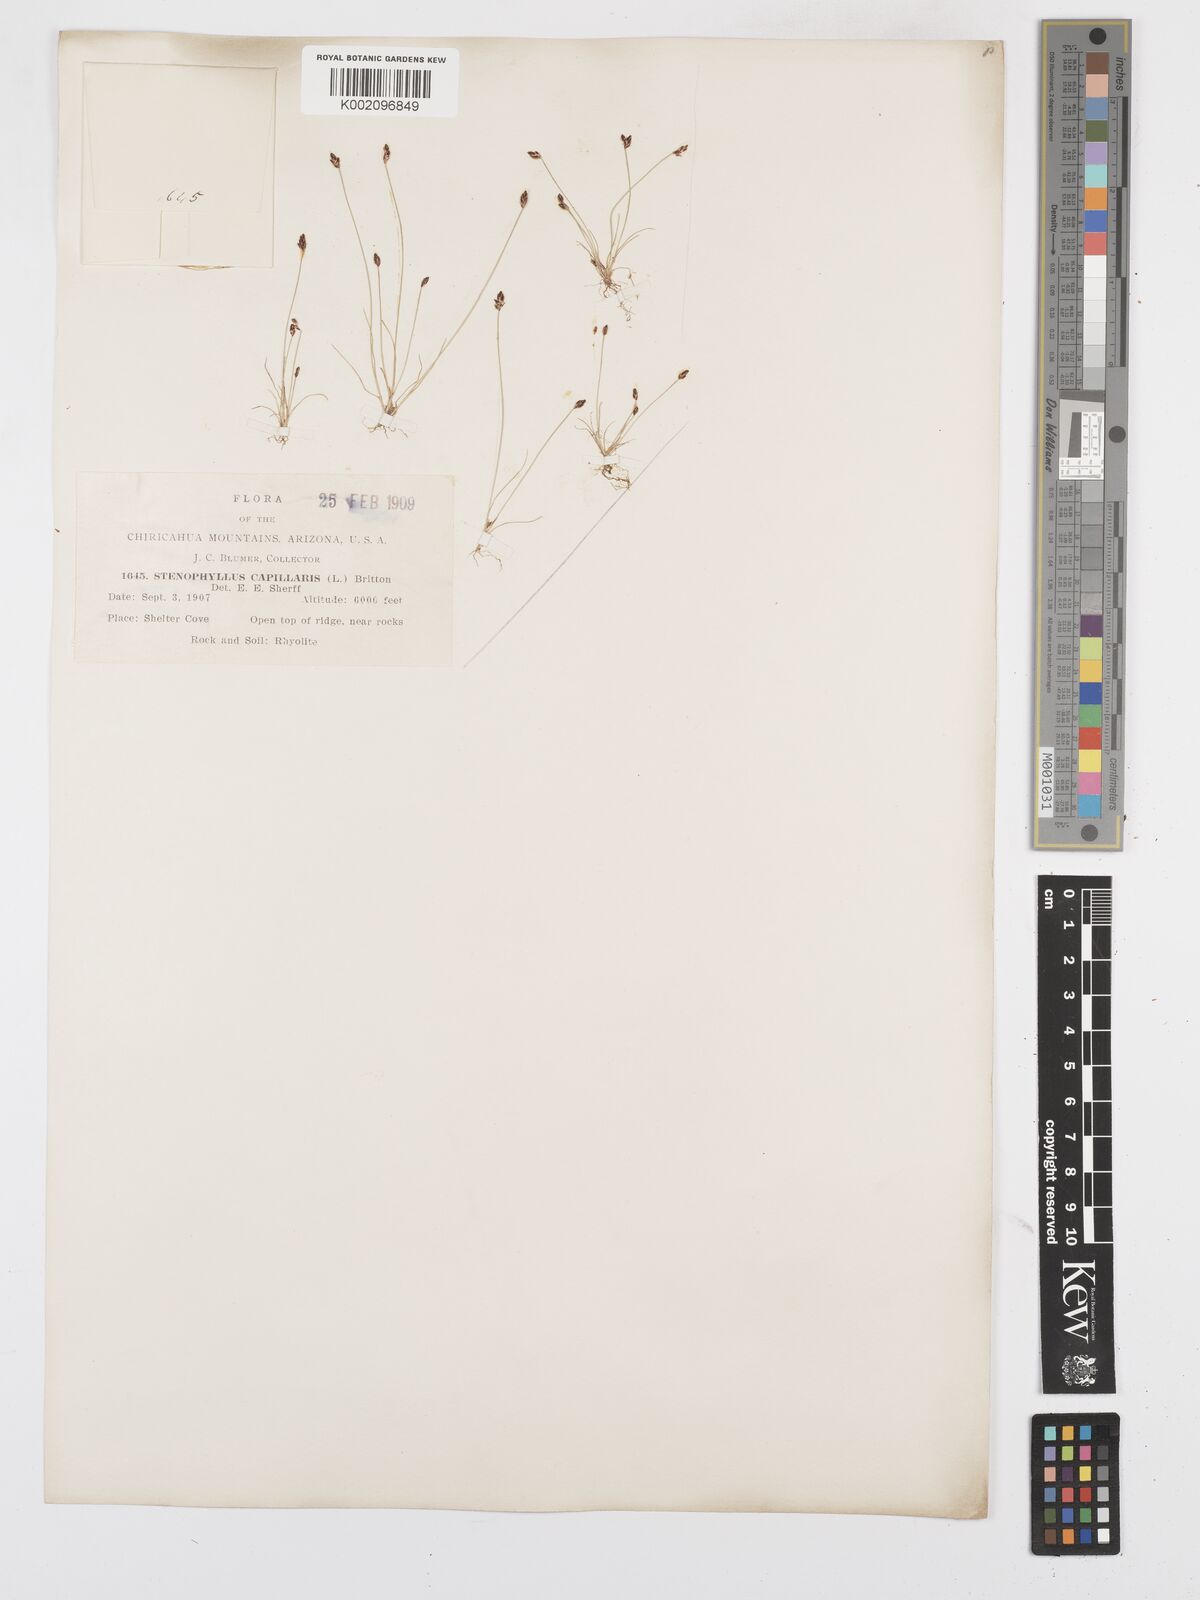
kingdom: Plantae
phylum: Tracheophyta
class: Liliopsida
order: Poales
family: Cyperaceae
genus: Bulbostylis
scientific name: Bulbostylis capillaris
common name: Densetuft hairsedge
